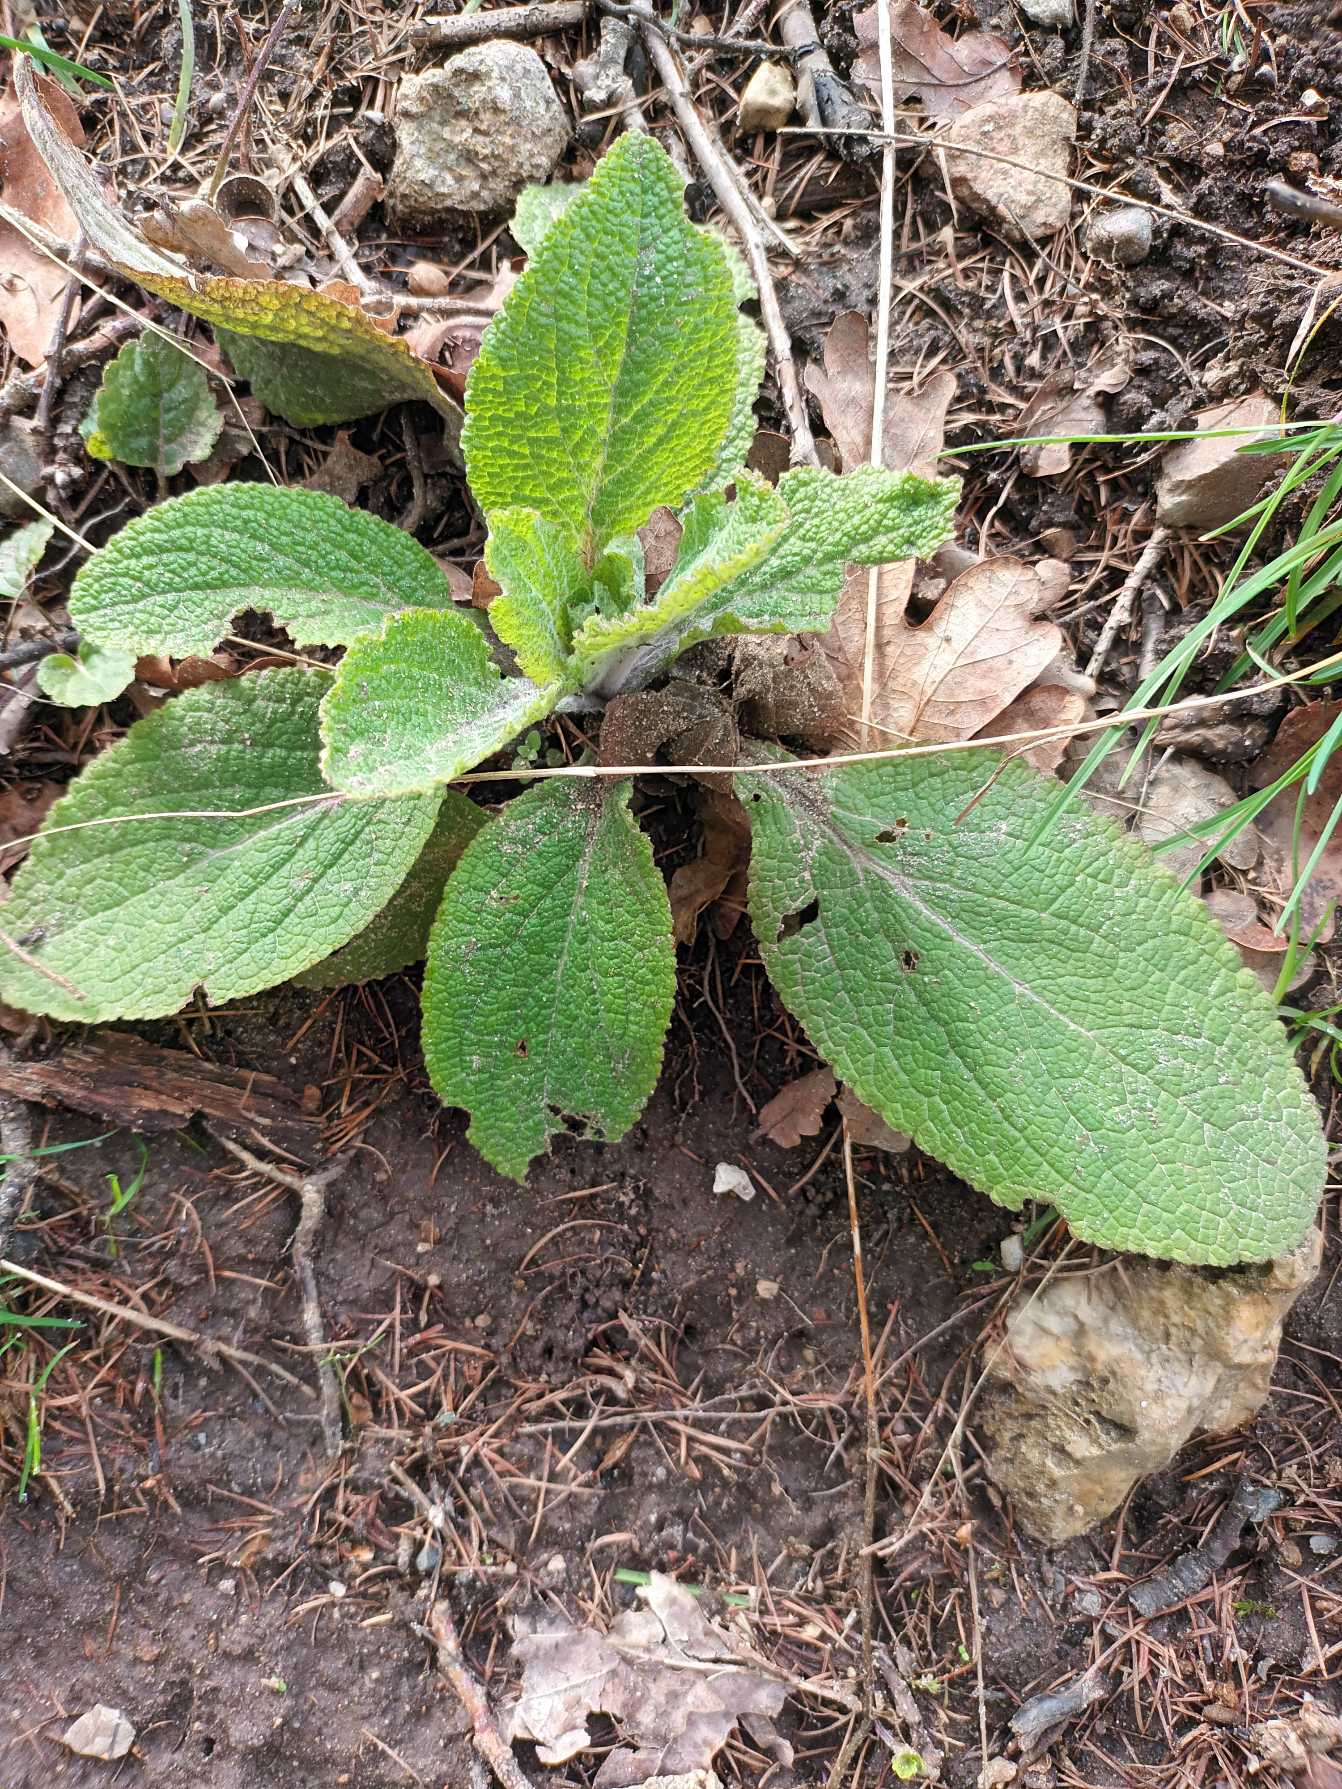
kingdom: Plantae
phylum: Tracheophyta
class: Magnoliopsida
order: Lamiales
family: Plantaginaceae
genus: Digitalis
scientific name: Digitalis purpurea
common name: Almindelig fingerbøl
